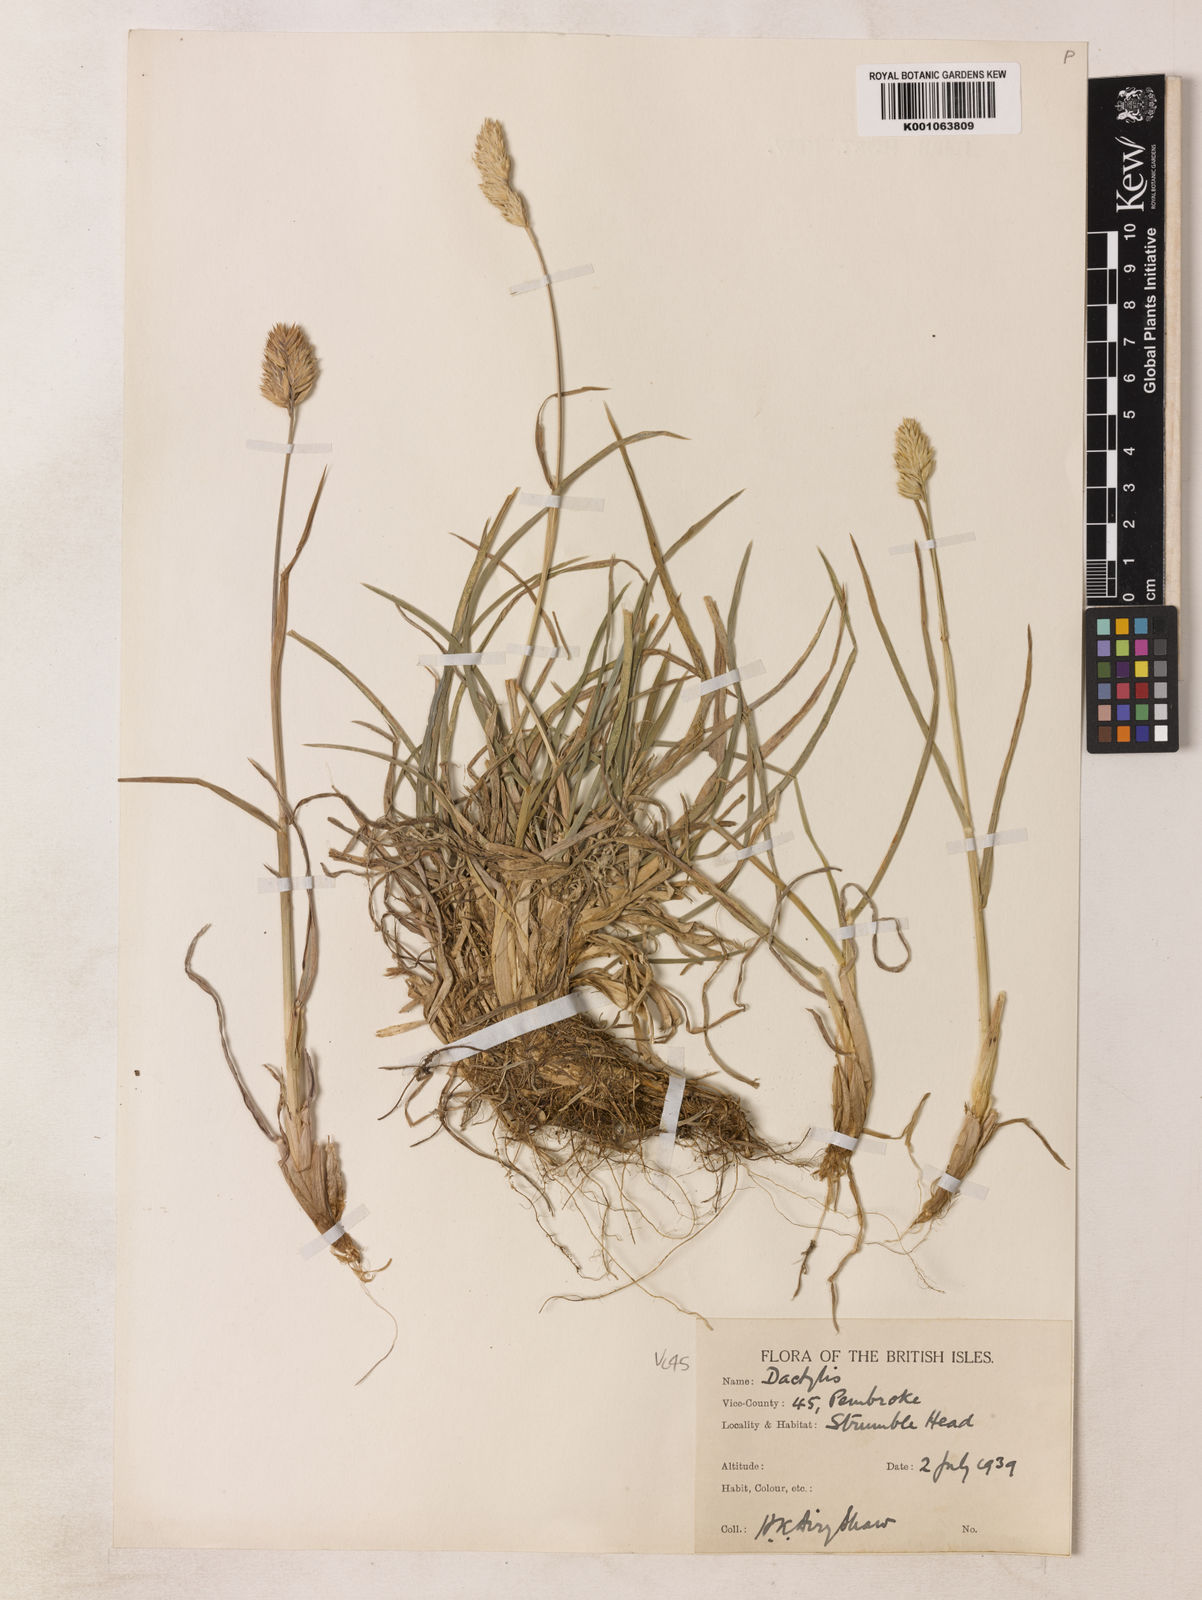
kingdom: Plantae
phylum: Tracheophyta
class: Liliopsida
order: Poales
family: Poaceae
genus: Dactylis
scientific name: Dactylis glomerata
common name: Orchardgrass
